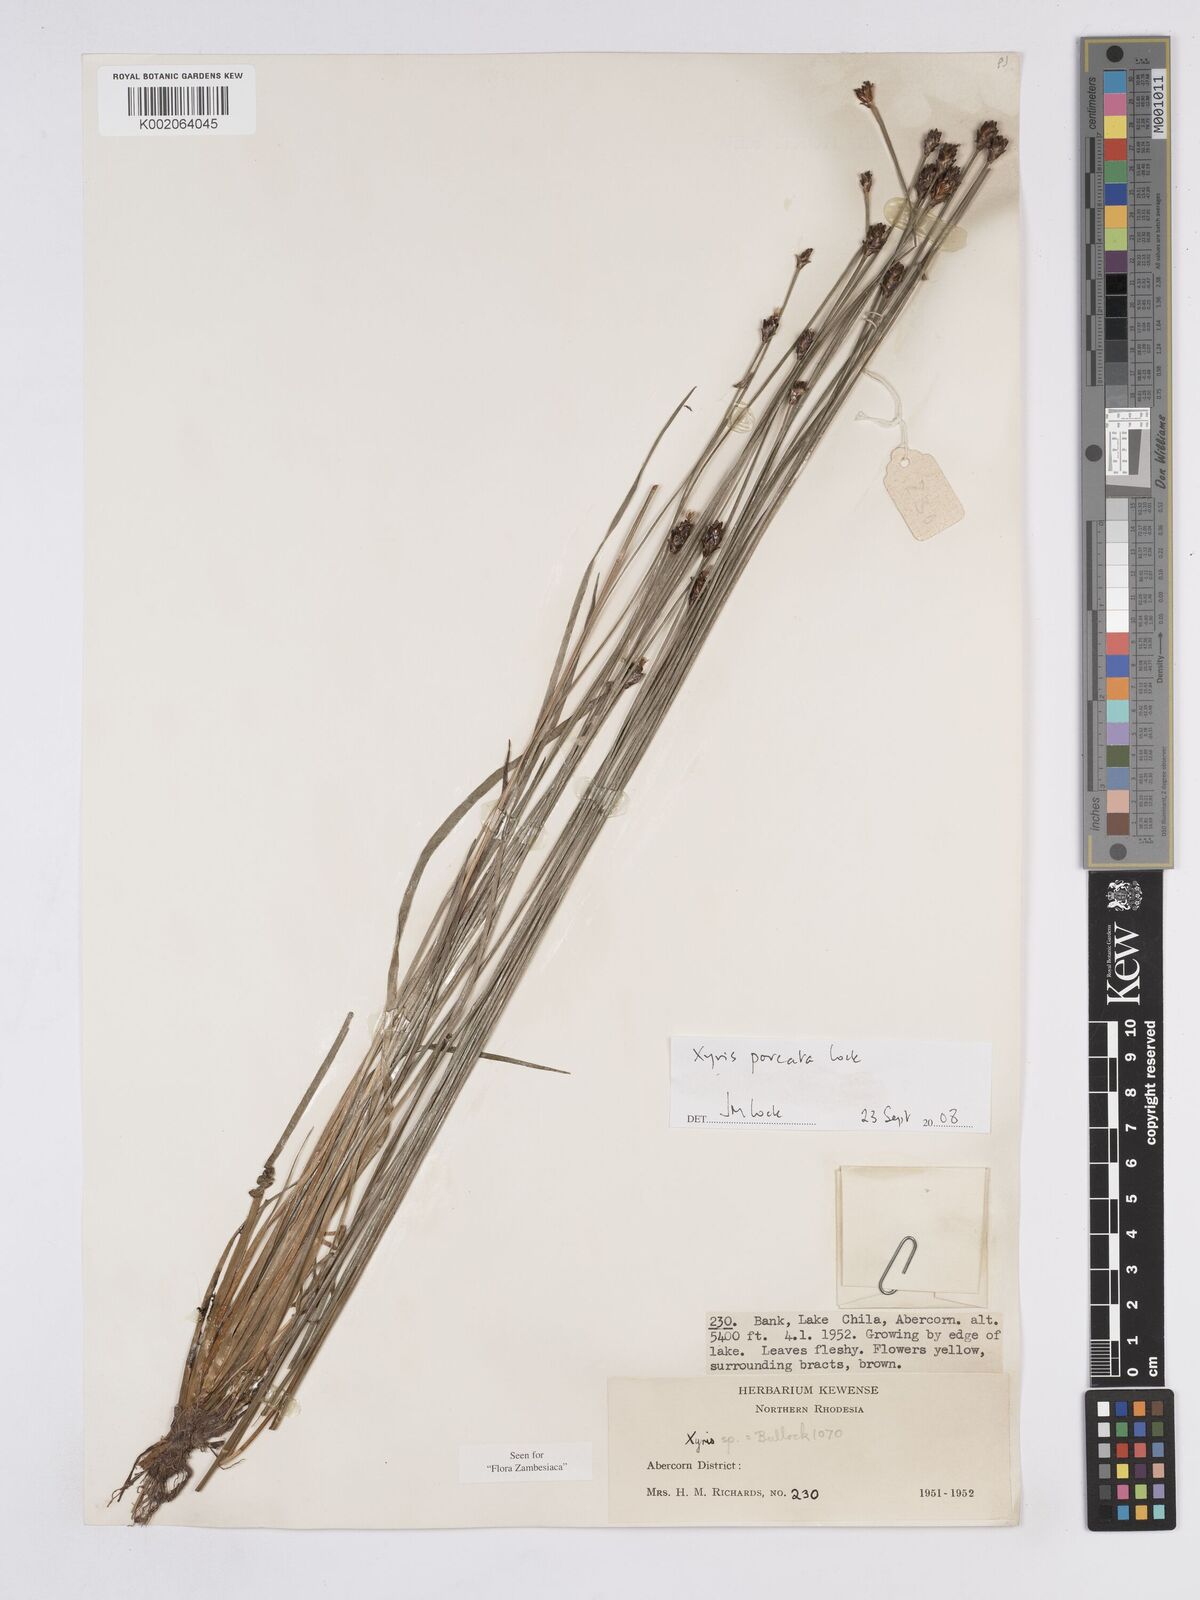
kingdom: Plantae
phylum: Tracheophyta
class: Liliopsida
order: Poales
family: Xyridaceae
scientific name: Xyridaceae
